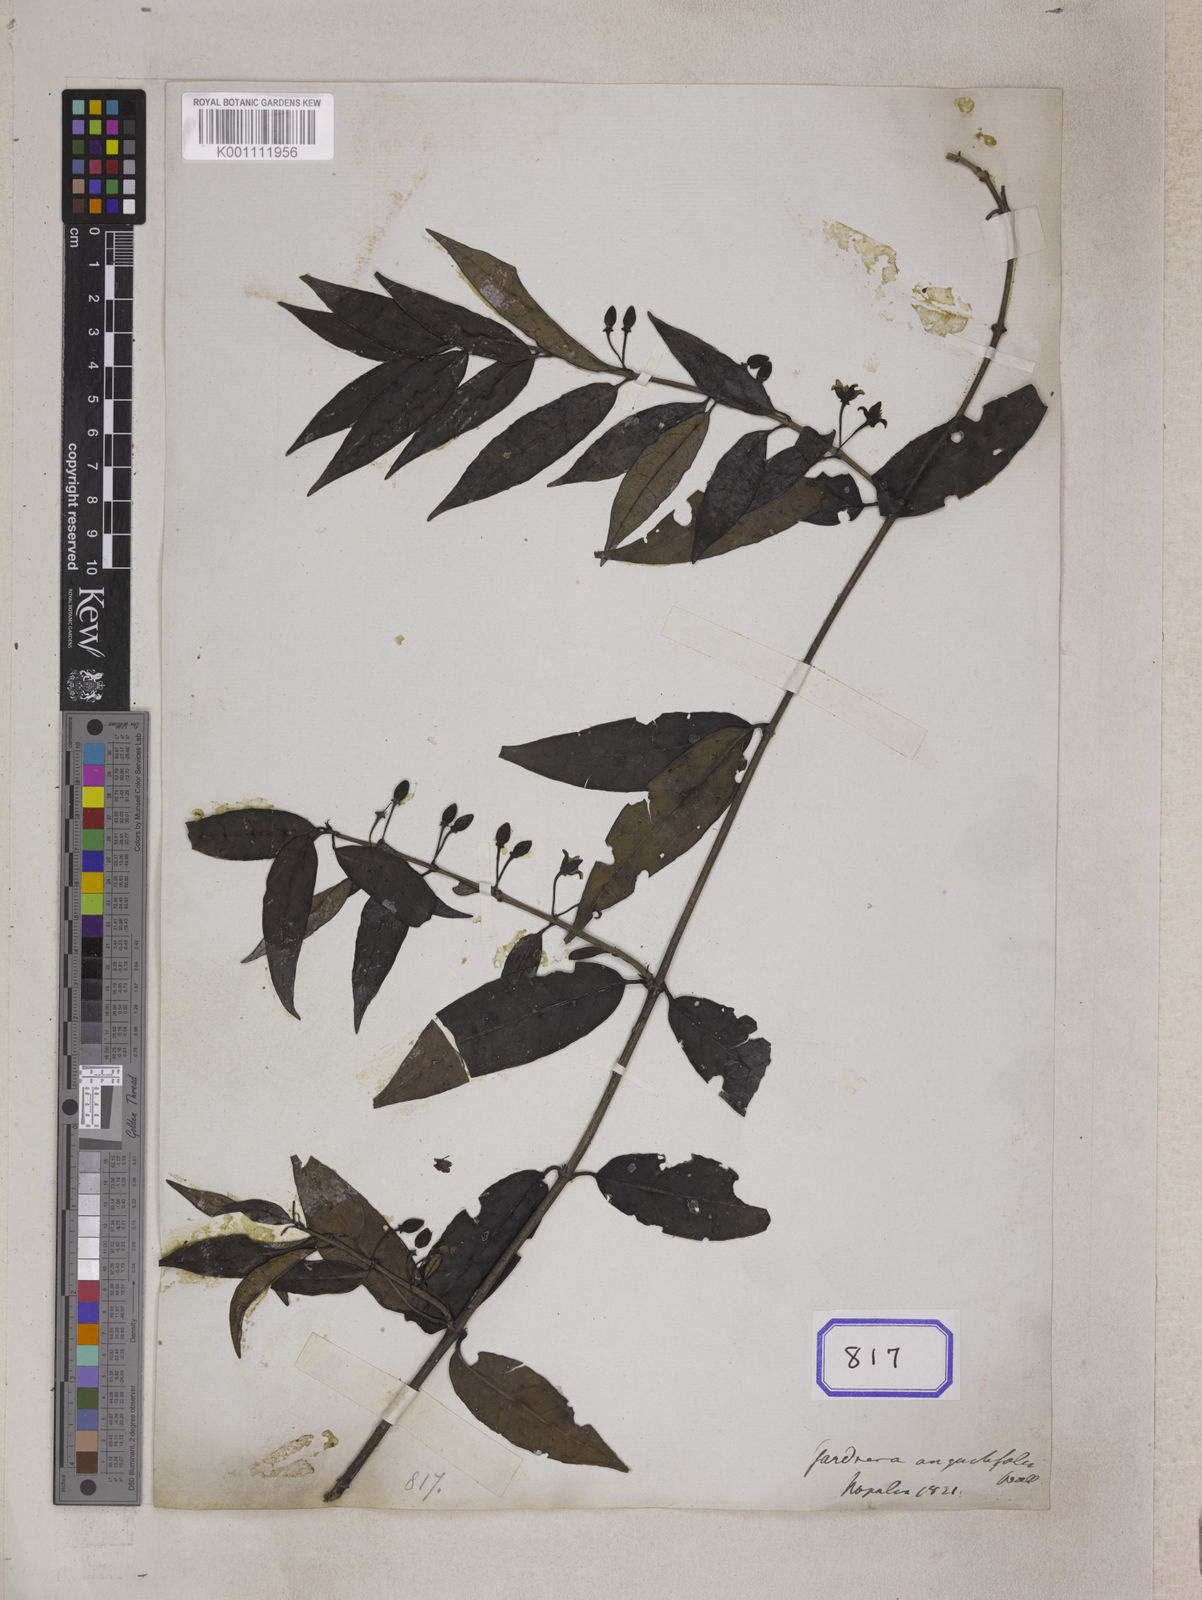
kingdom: Plantae
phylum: Tracheophyta
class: Magnoliopsida
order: Gentianales
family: Loganiaceae
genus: Gardneria
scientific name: Gardneria angustifolia
